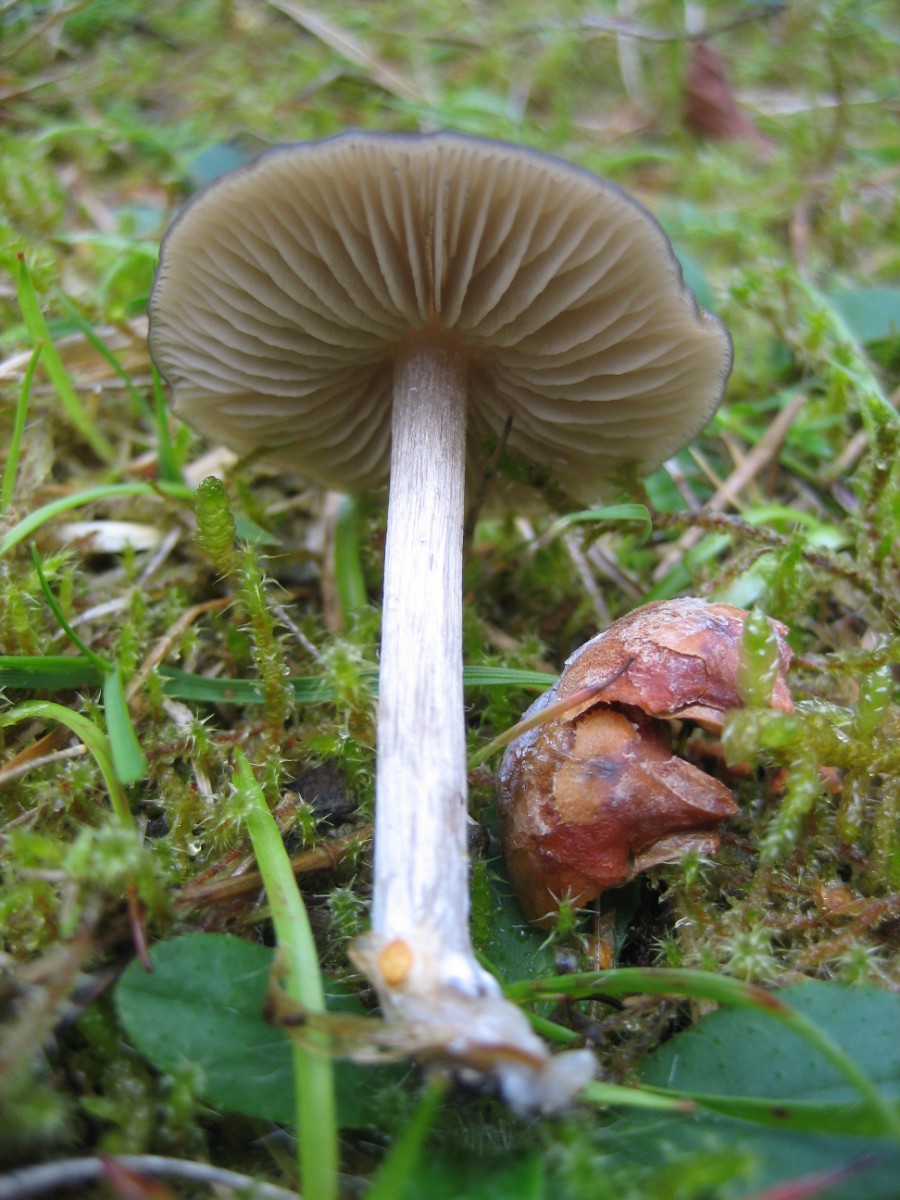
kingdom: Fungi
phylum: Basidiomycota
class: Agaricomycetes
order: Agaricales
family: Entolomataceae
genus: Entoloma
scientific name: Entoloma
